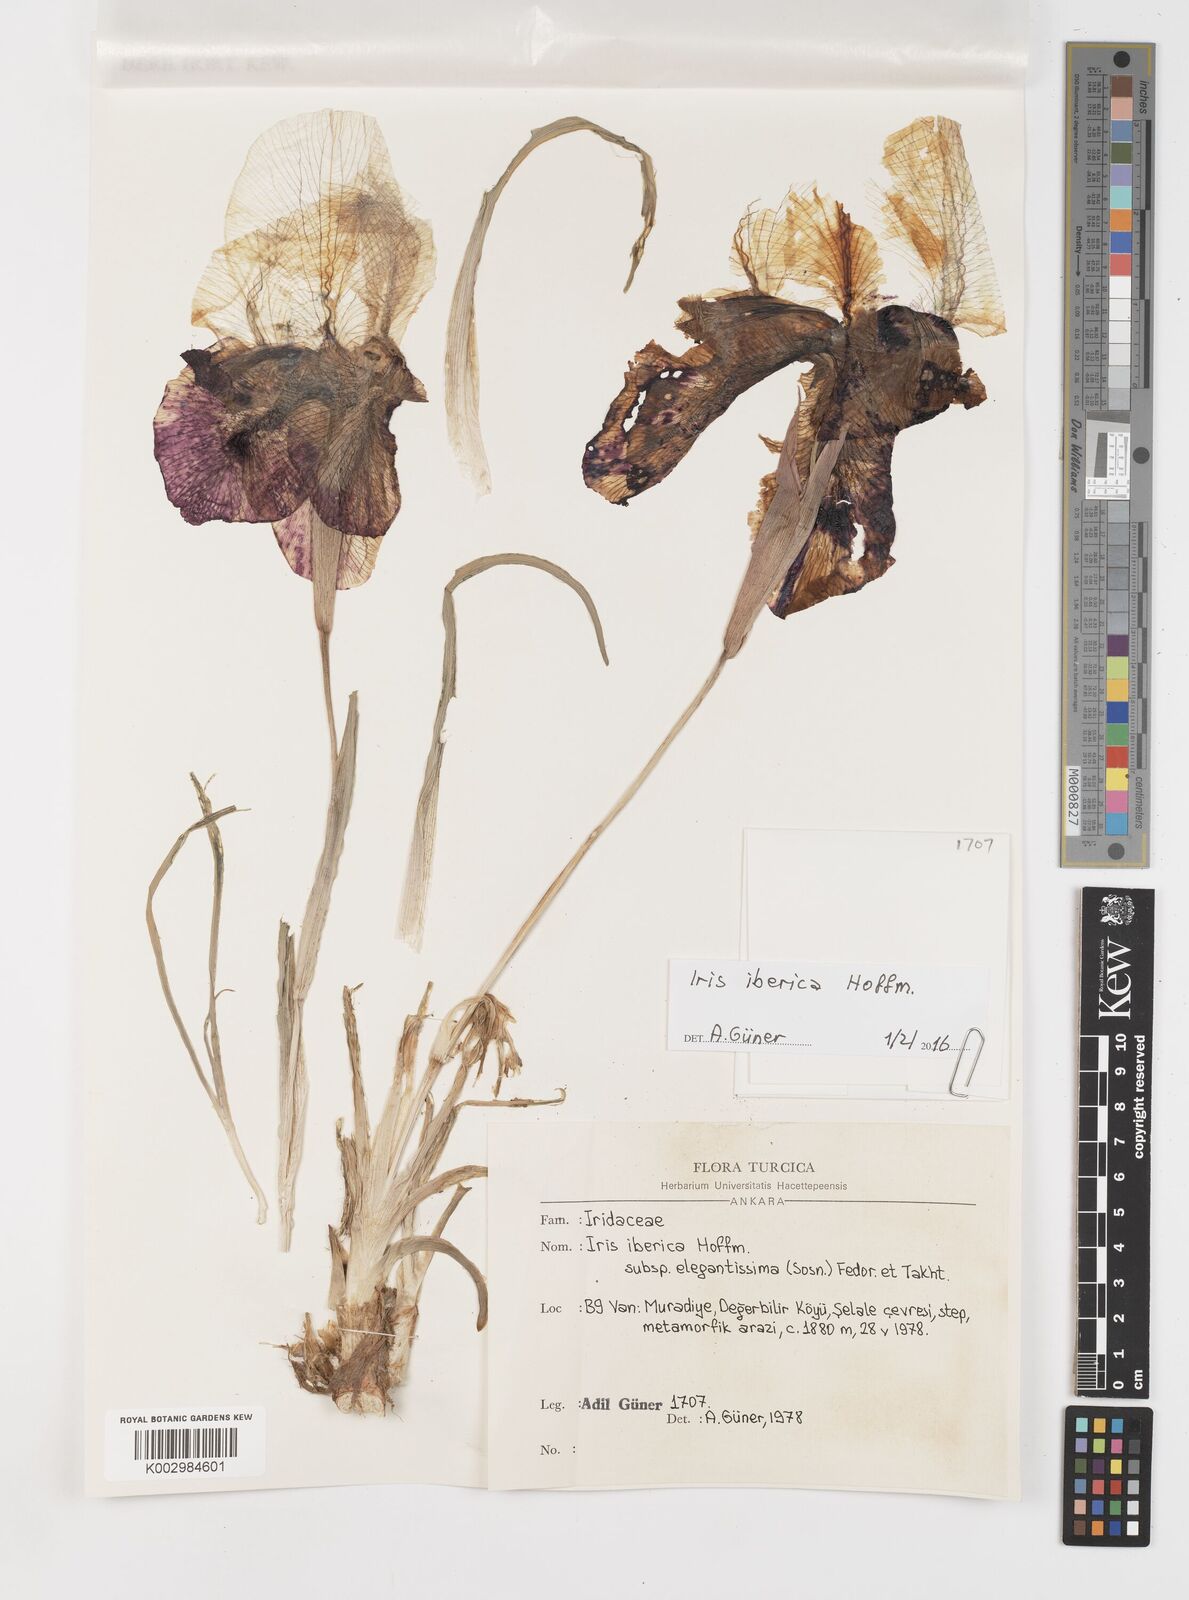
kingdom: Plantae
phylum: Tracheophyta
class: Liliopsida
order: Asparagales
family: Iridaceae
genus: Iris
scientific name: Iris iberica
